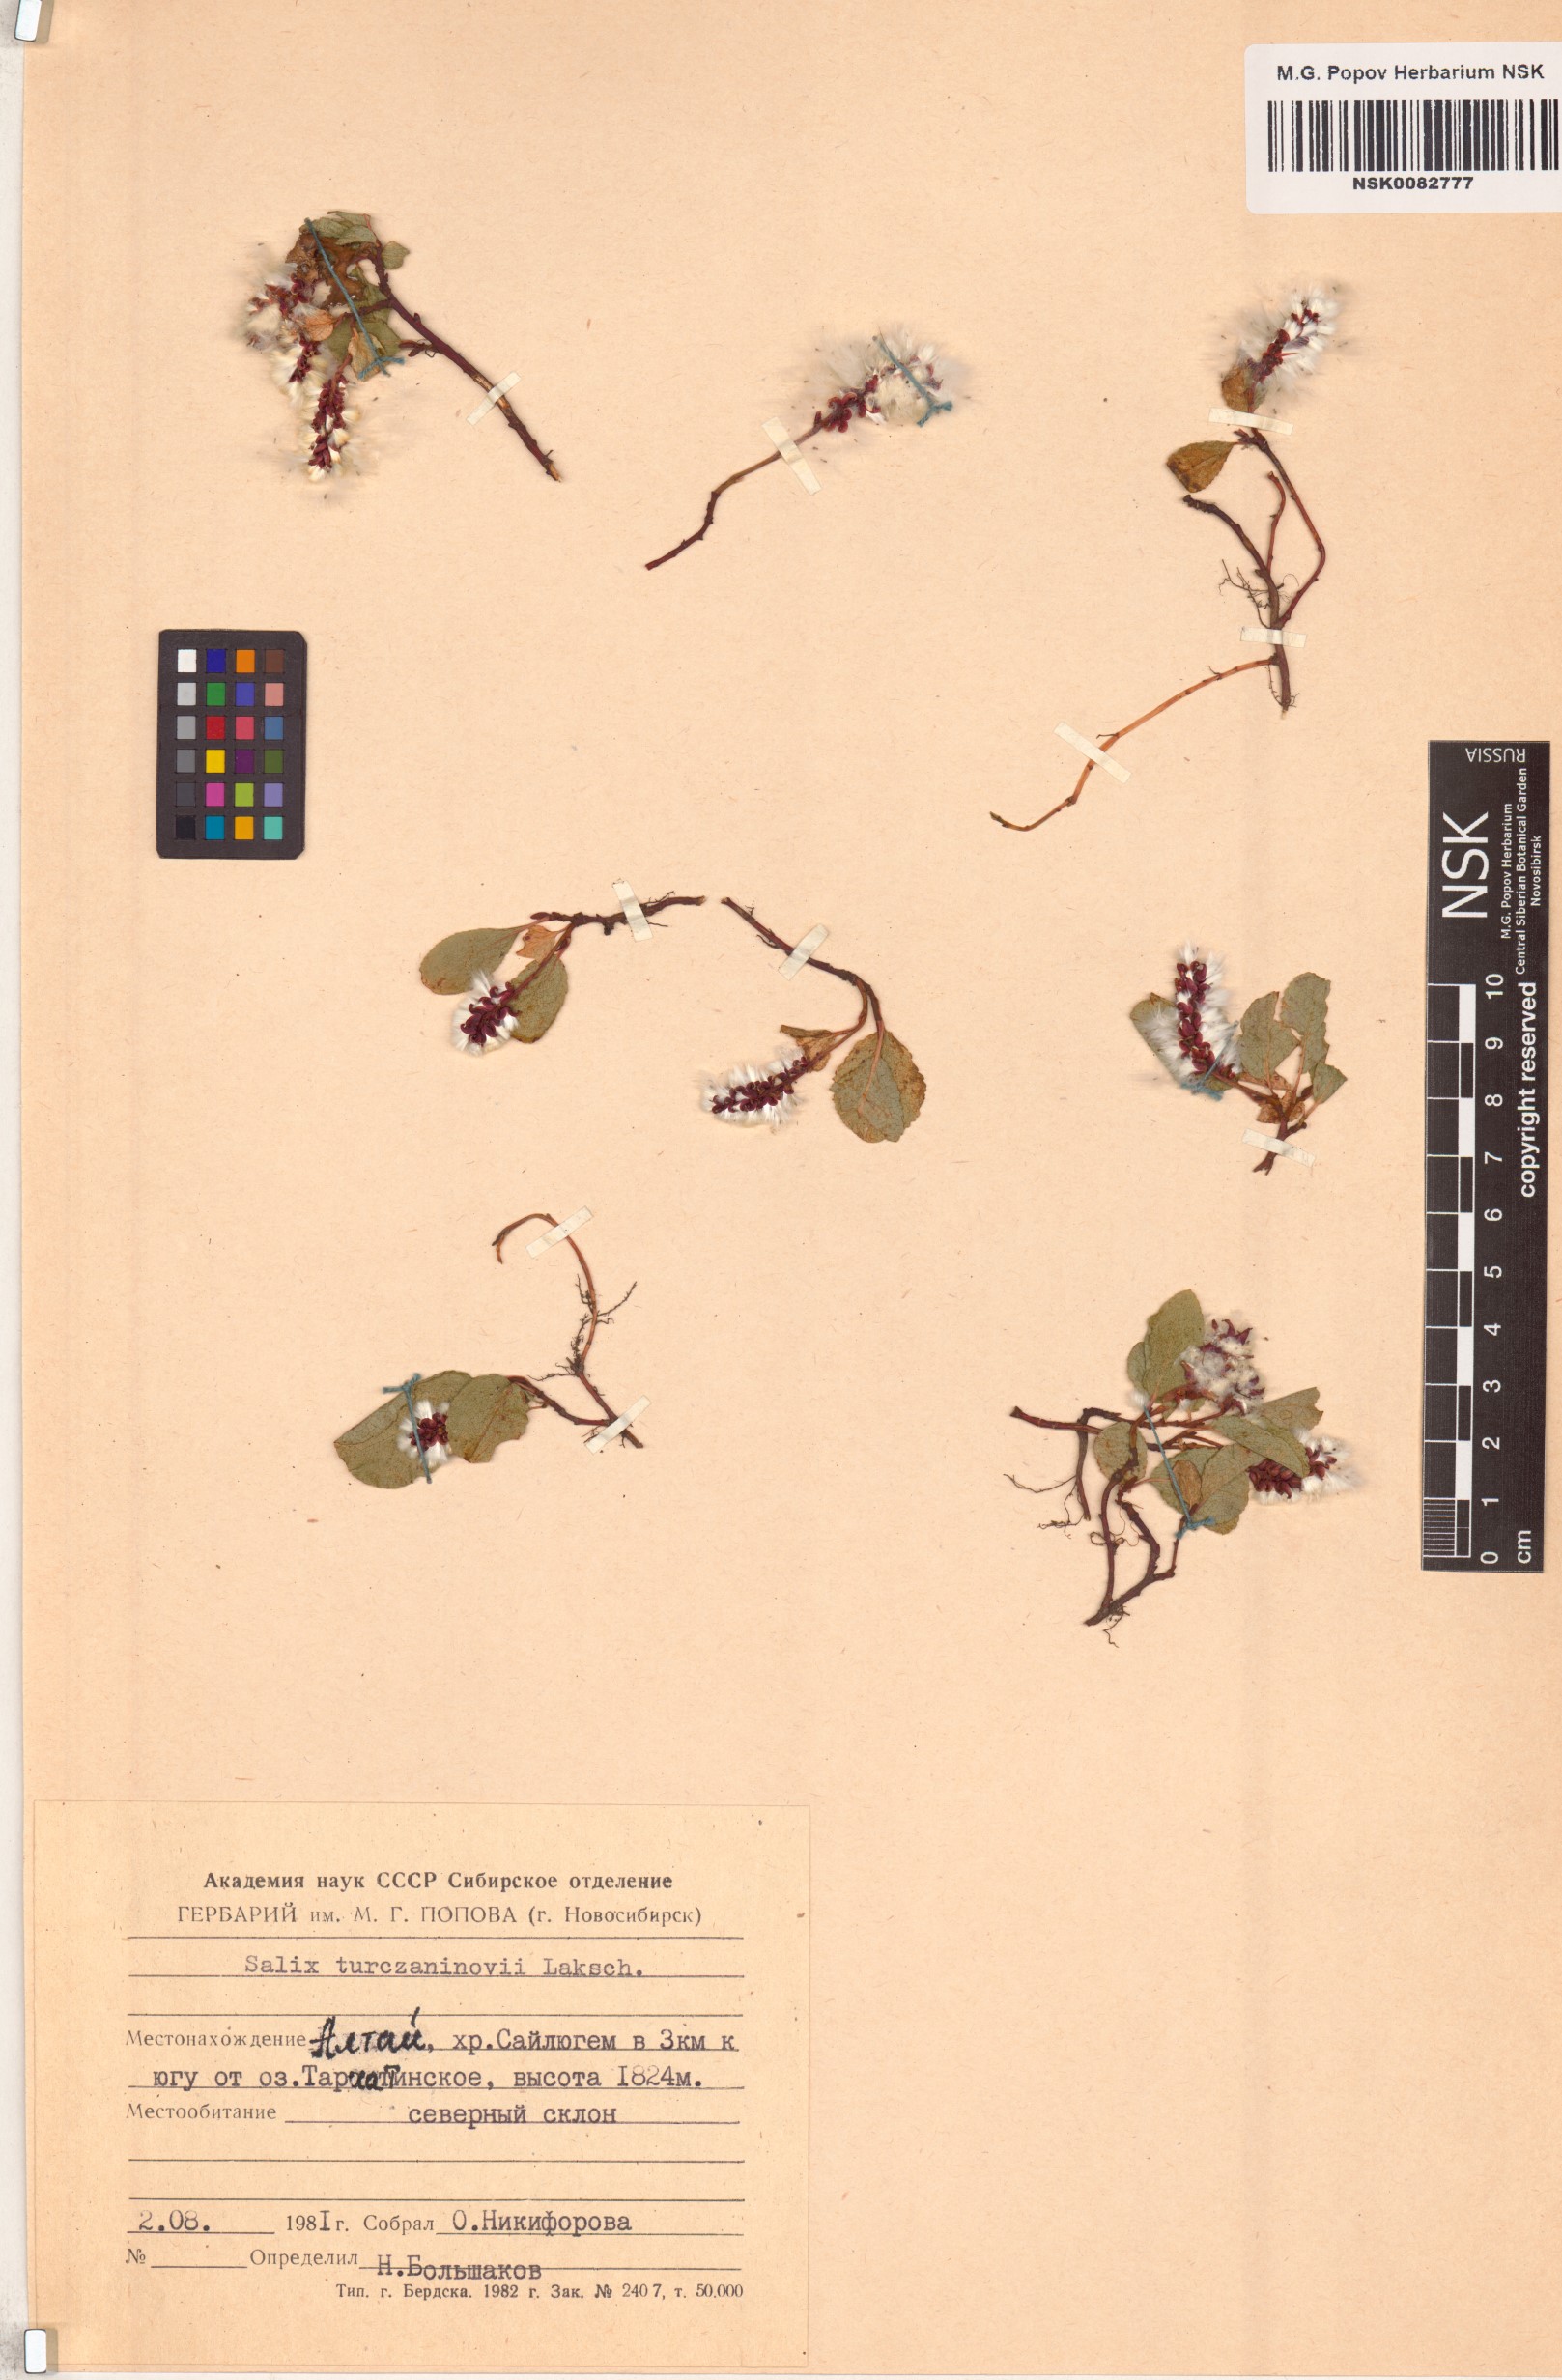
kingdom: Plantae
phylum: Tracheophyta
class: Magnoliopsida
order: Malpighiales
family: Salicaceae
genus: Salix
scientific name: Salix turczaninowii
